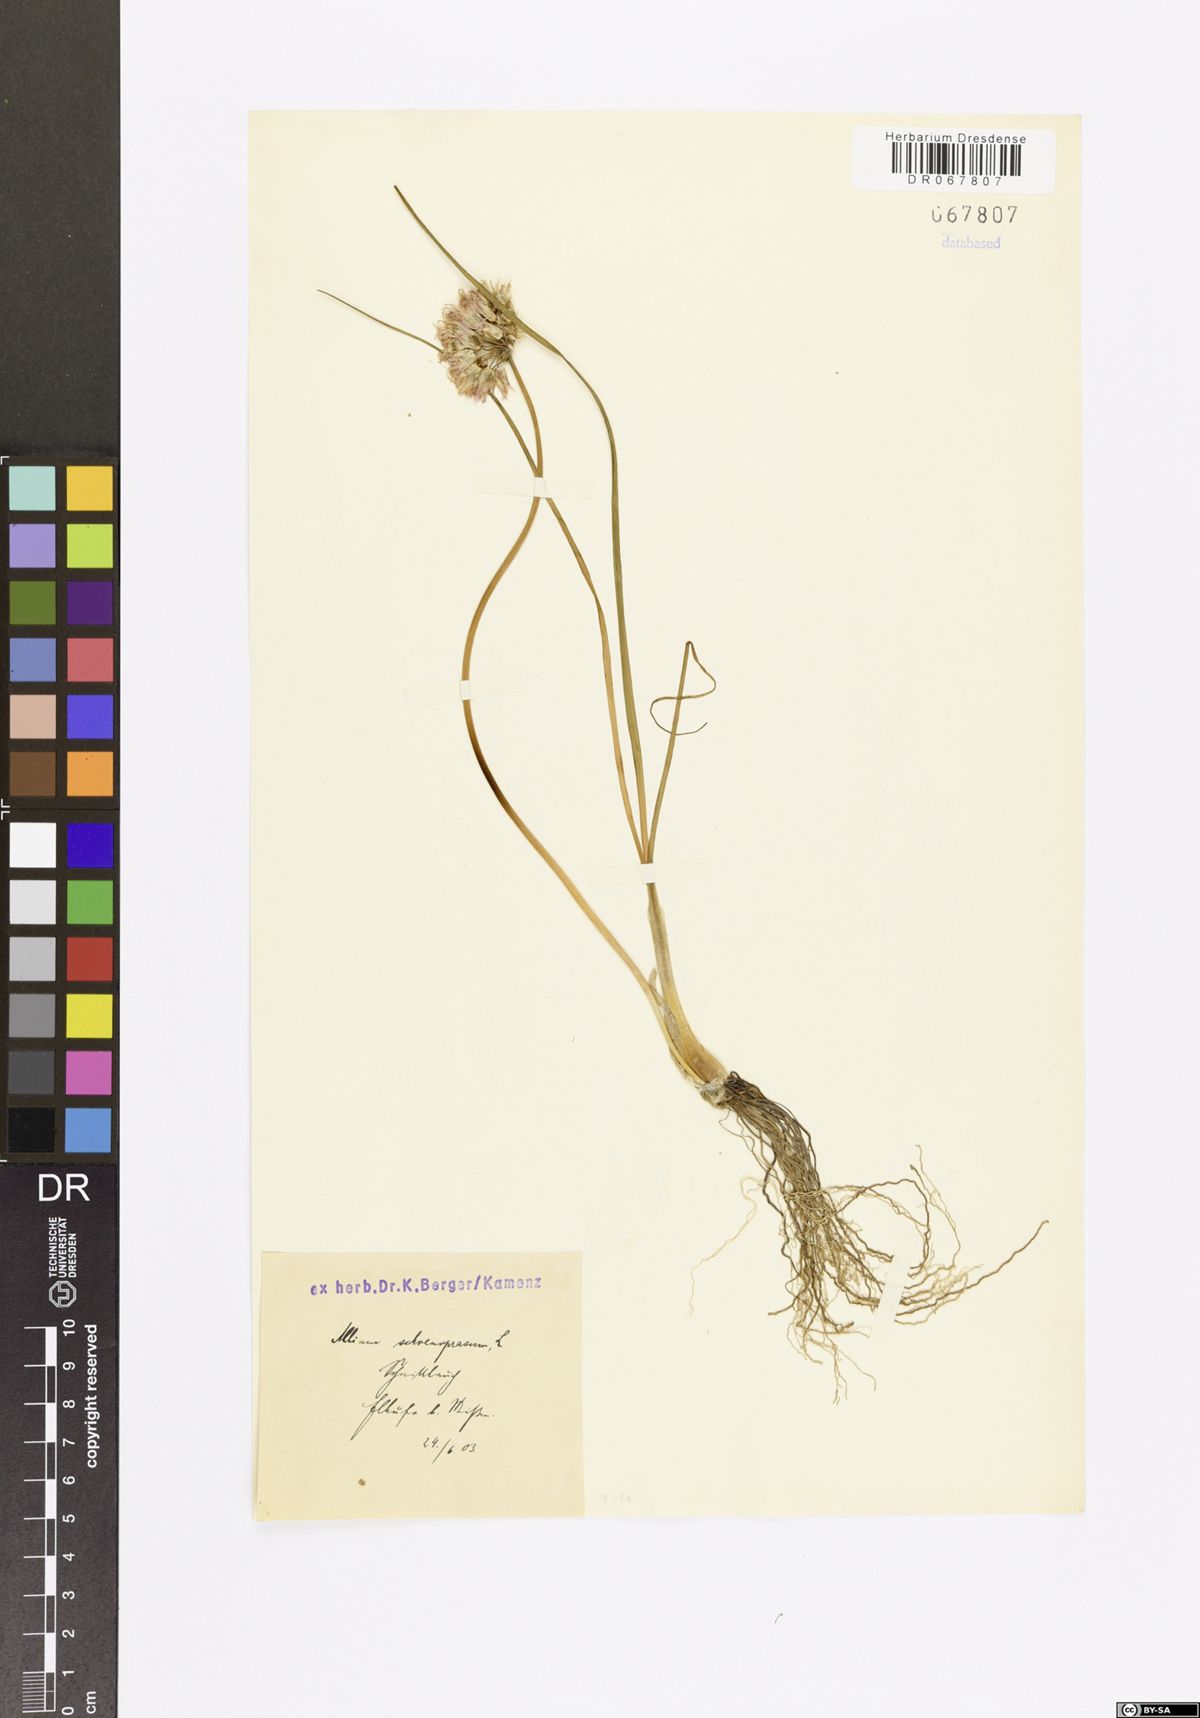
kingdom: Plantae
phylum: Tracheophyta
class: Liliopsida
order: Asparagales
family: Amaryllidaceae
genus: Allium
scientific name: Allium schoenoprasum
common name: Chives
